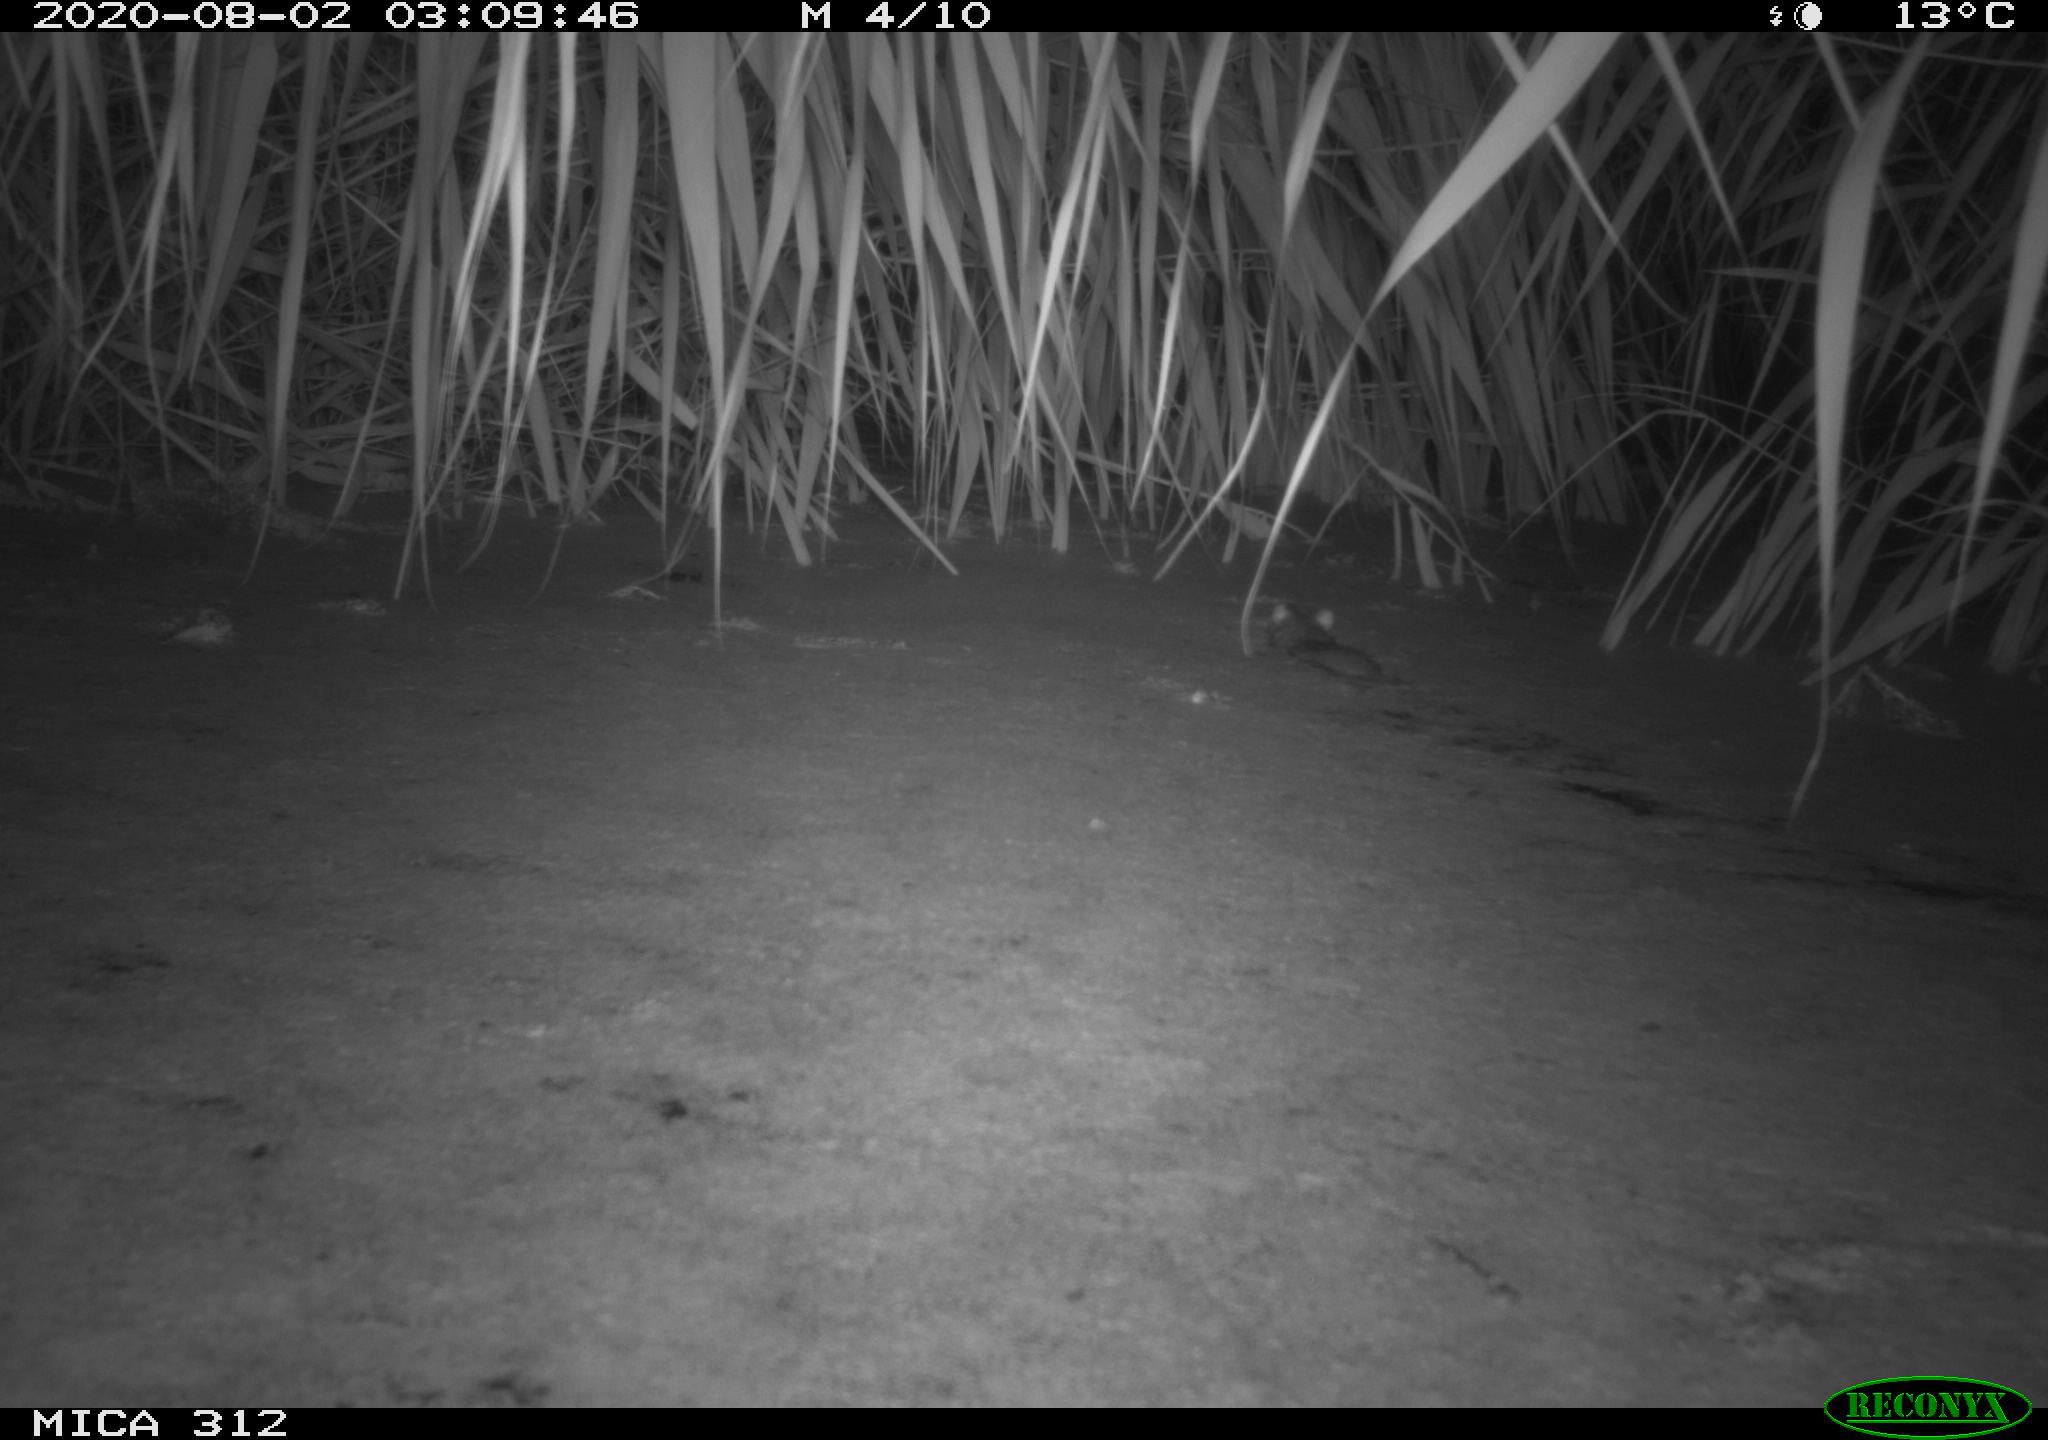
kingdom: Animalia
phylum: Chordata
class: Mammalia
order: Rodentia
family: Muridae
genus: Rattus
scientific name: Rattus norvegicus
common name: Brown rat
